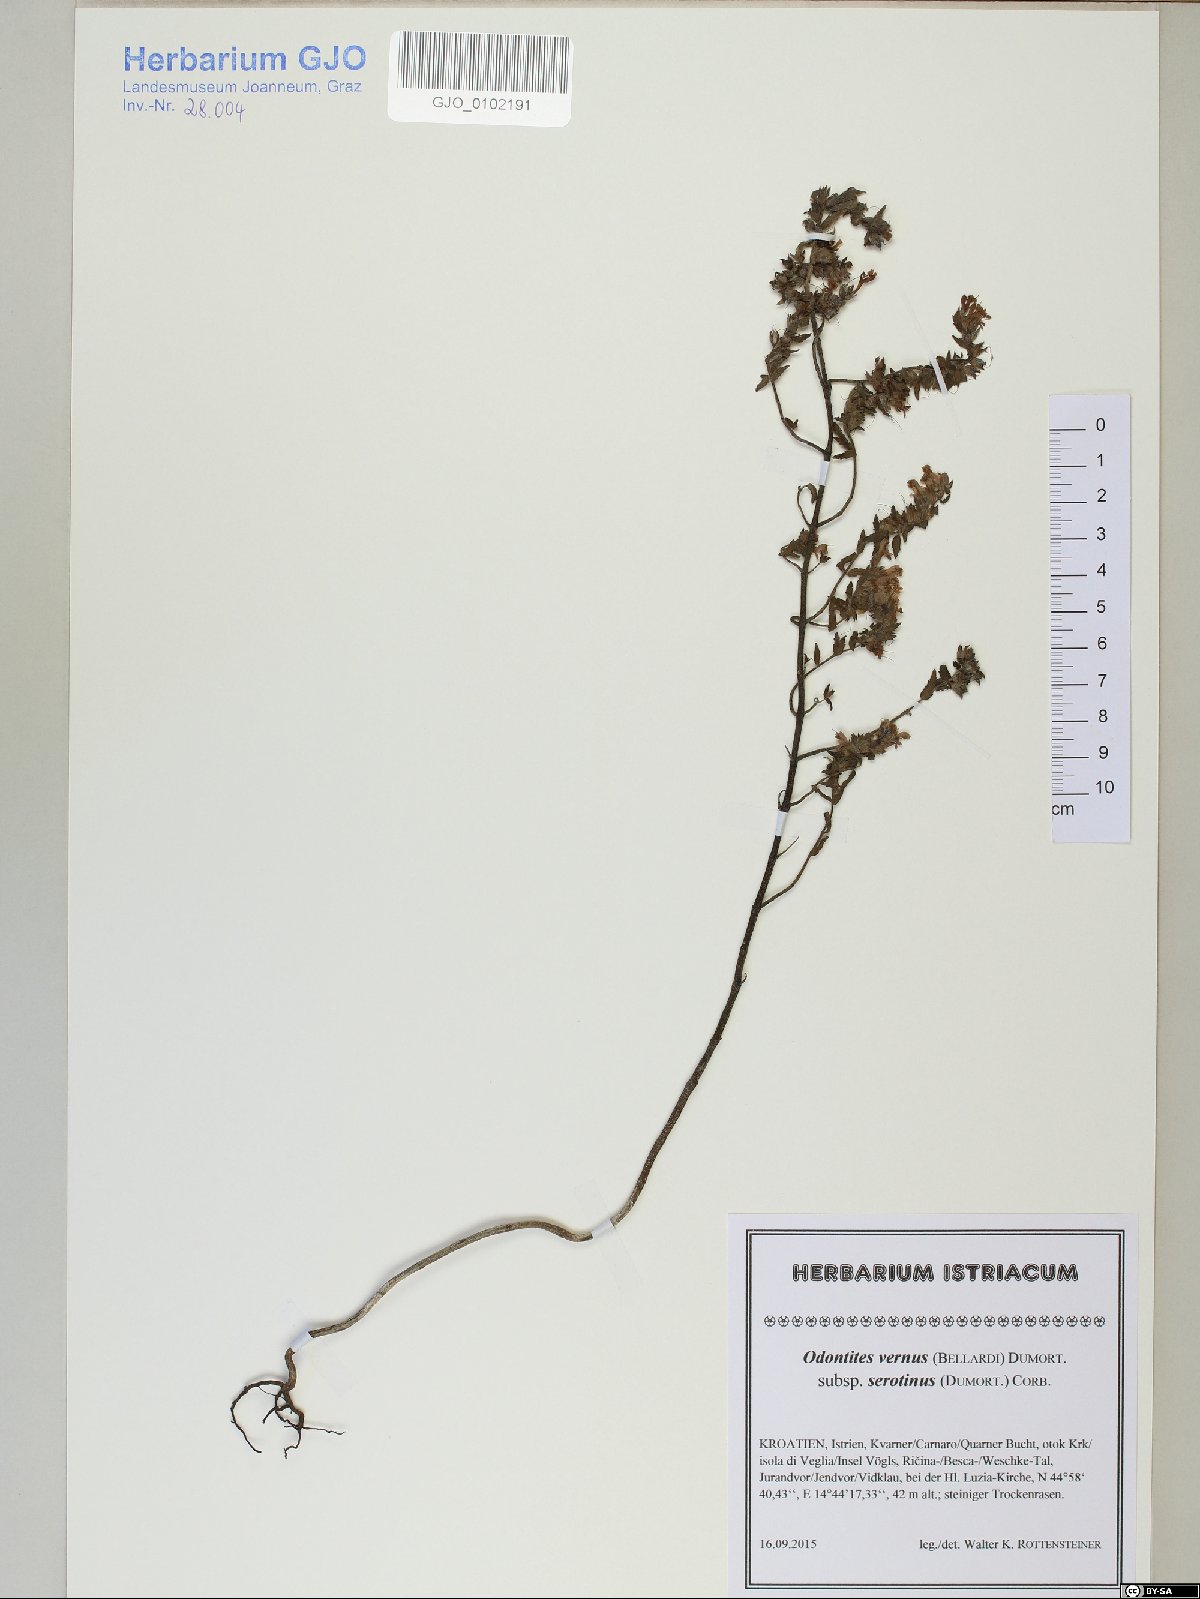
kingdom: Plantae
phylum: Tracheophyta
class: Magnoliopsida
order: Lamiales
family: Orobanchaceae
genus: Odontites
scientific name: Odontites vulgaris
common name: Broomrape
